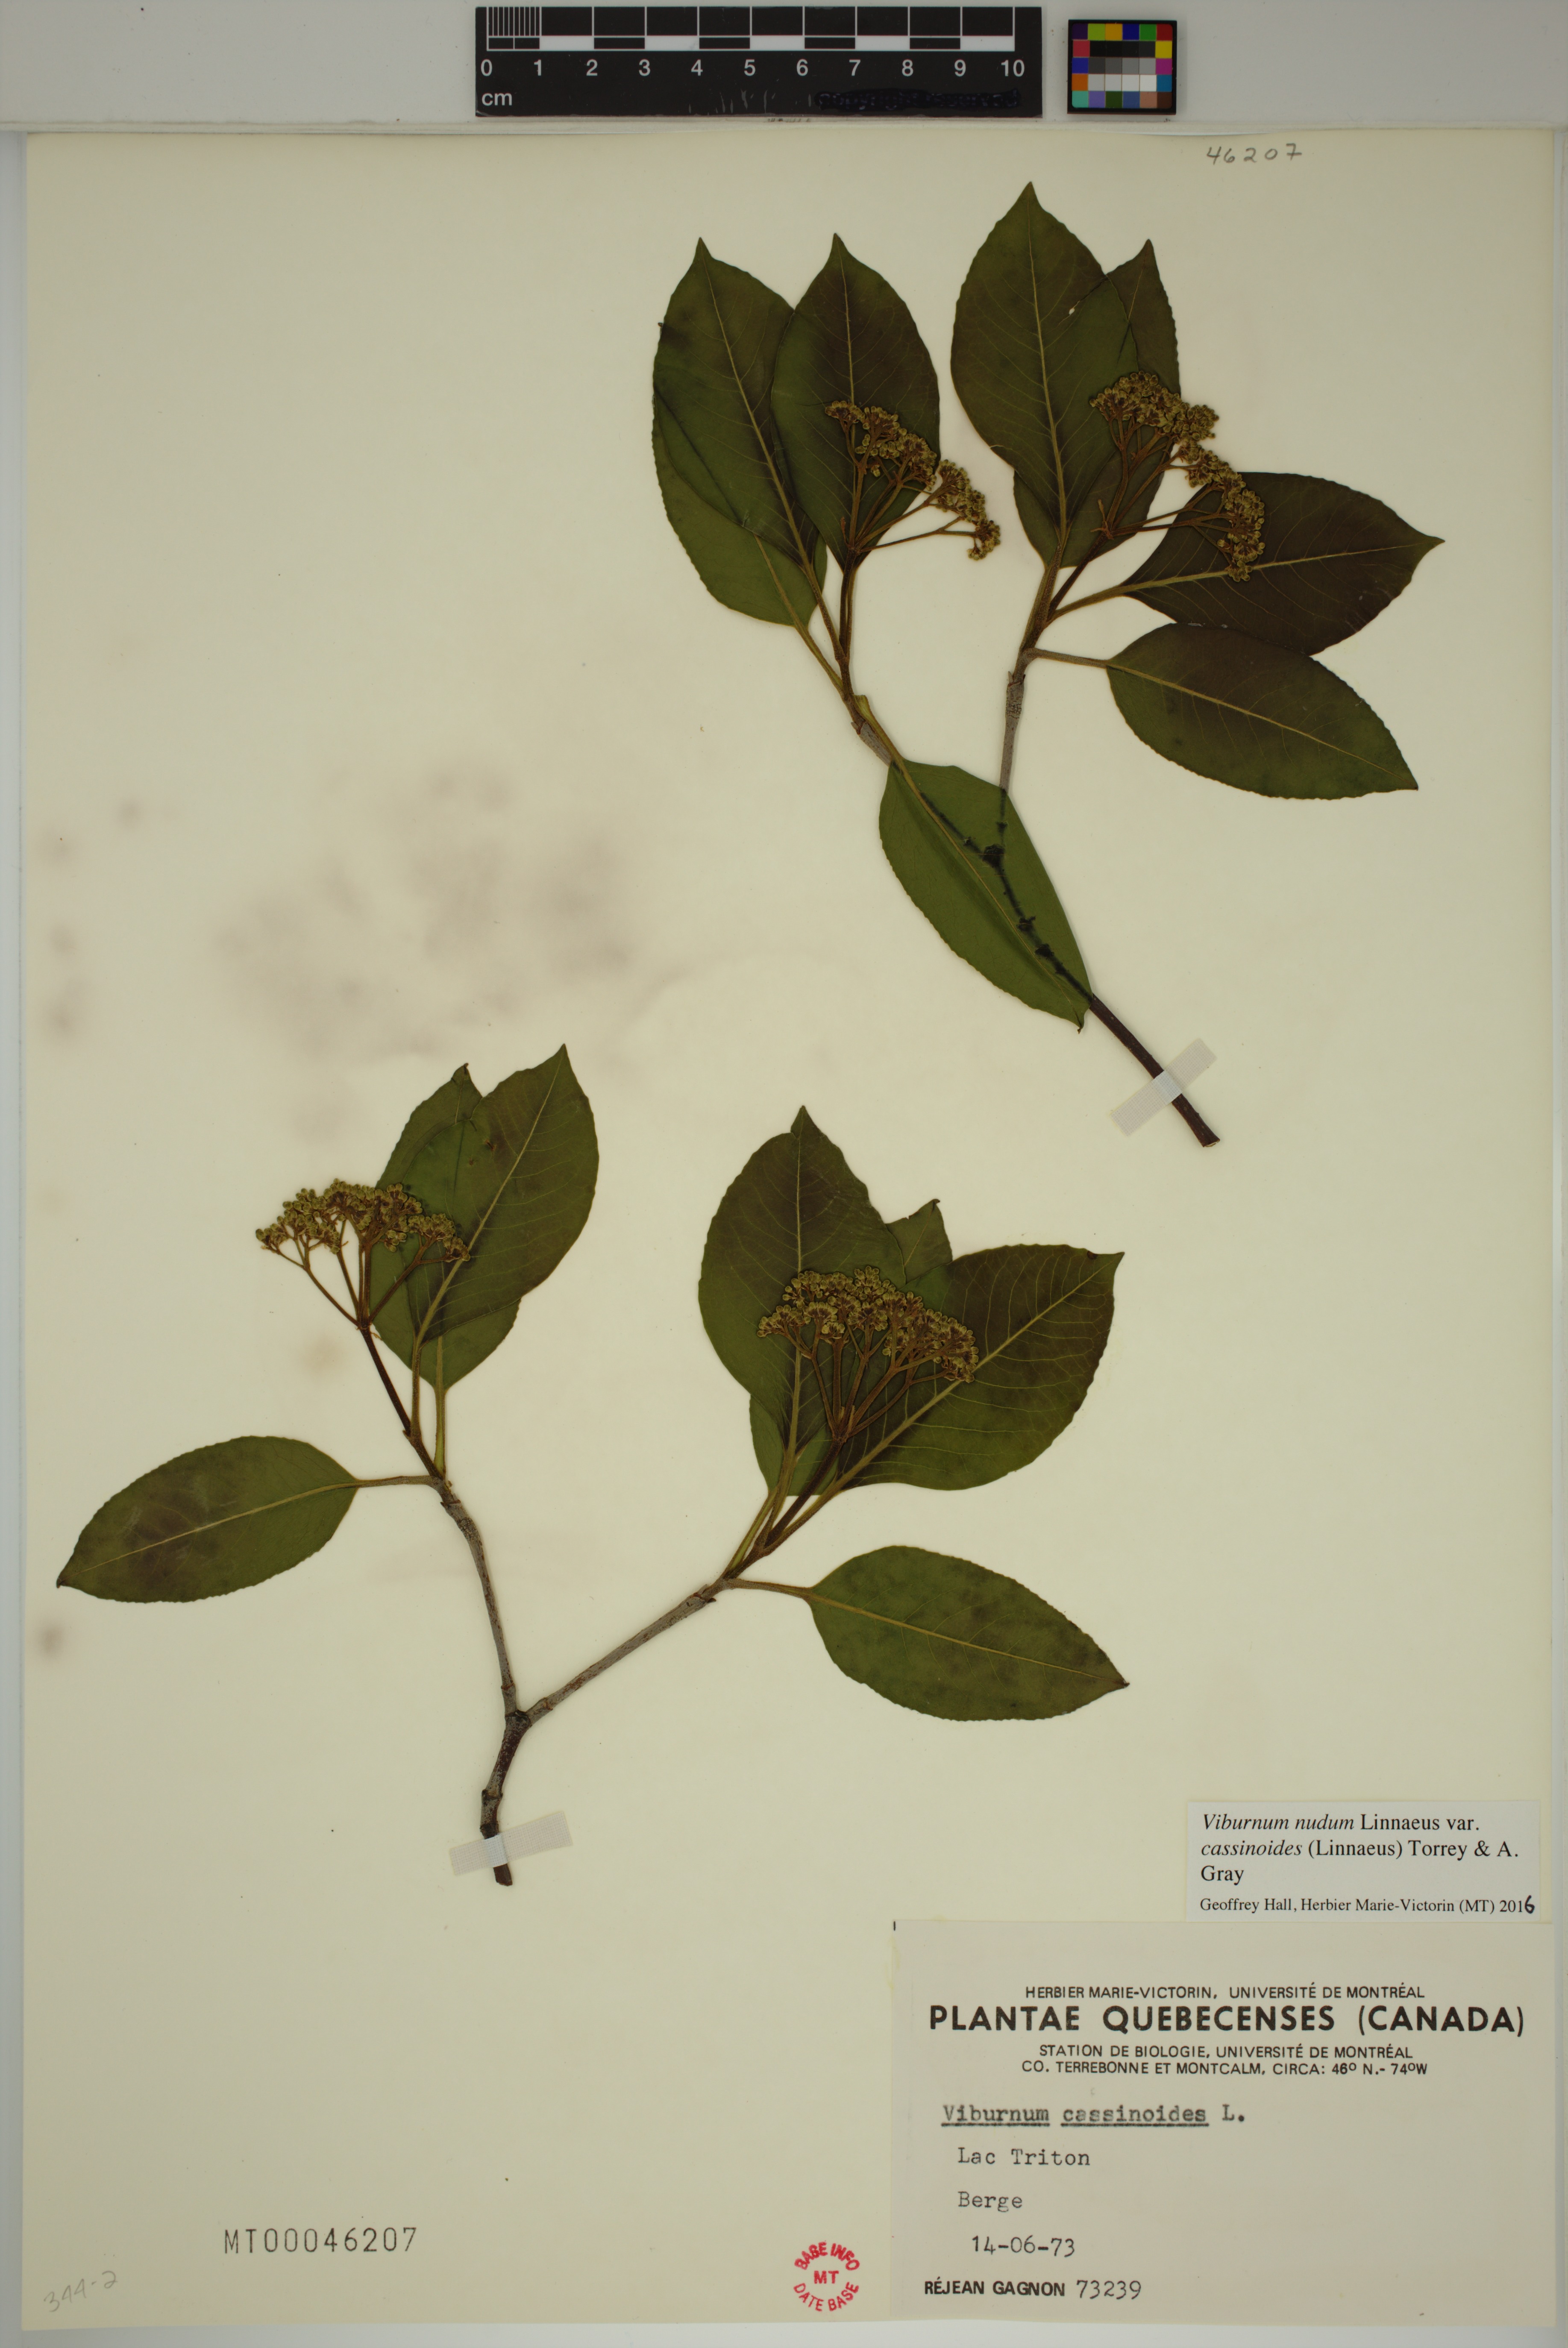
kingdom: Plantae
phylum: Tracheophyta
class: Magnoliopsida
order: Dipsacales
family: Viburnaceae
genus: Viburnum
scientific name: Viburnum cassinoides
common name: Swamp haw
